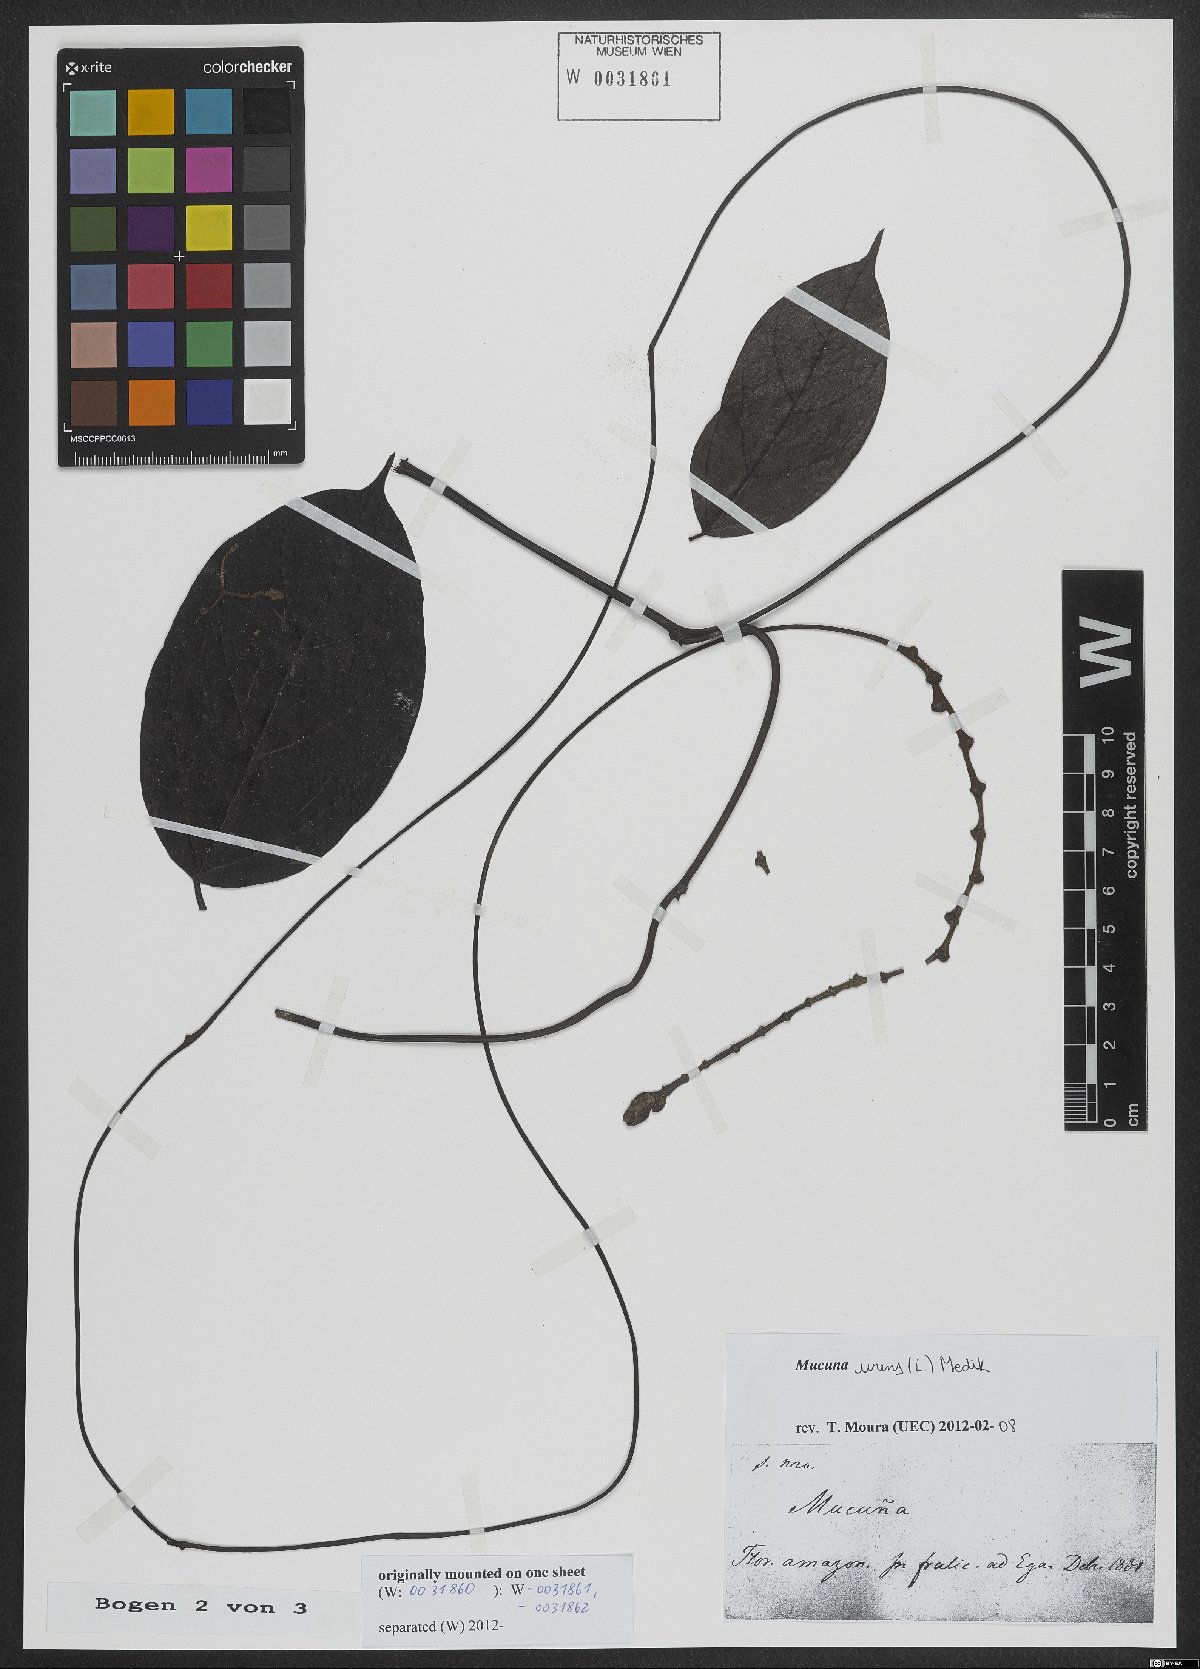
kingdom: Plantae
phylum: Tracheophyta
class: Magnoliopsida
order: Fabales
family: Fabaceae
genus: Mucuna
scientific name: Mucuna urens
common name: Red hamburger bean
